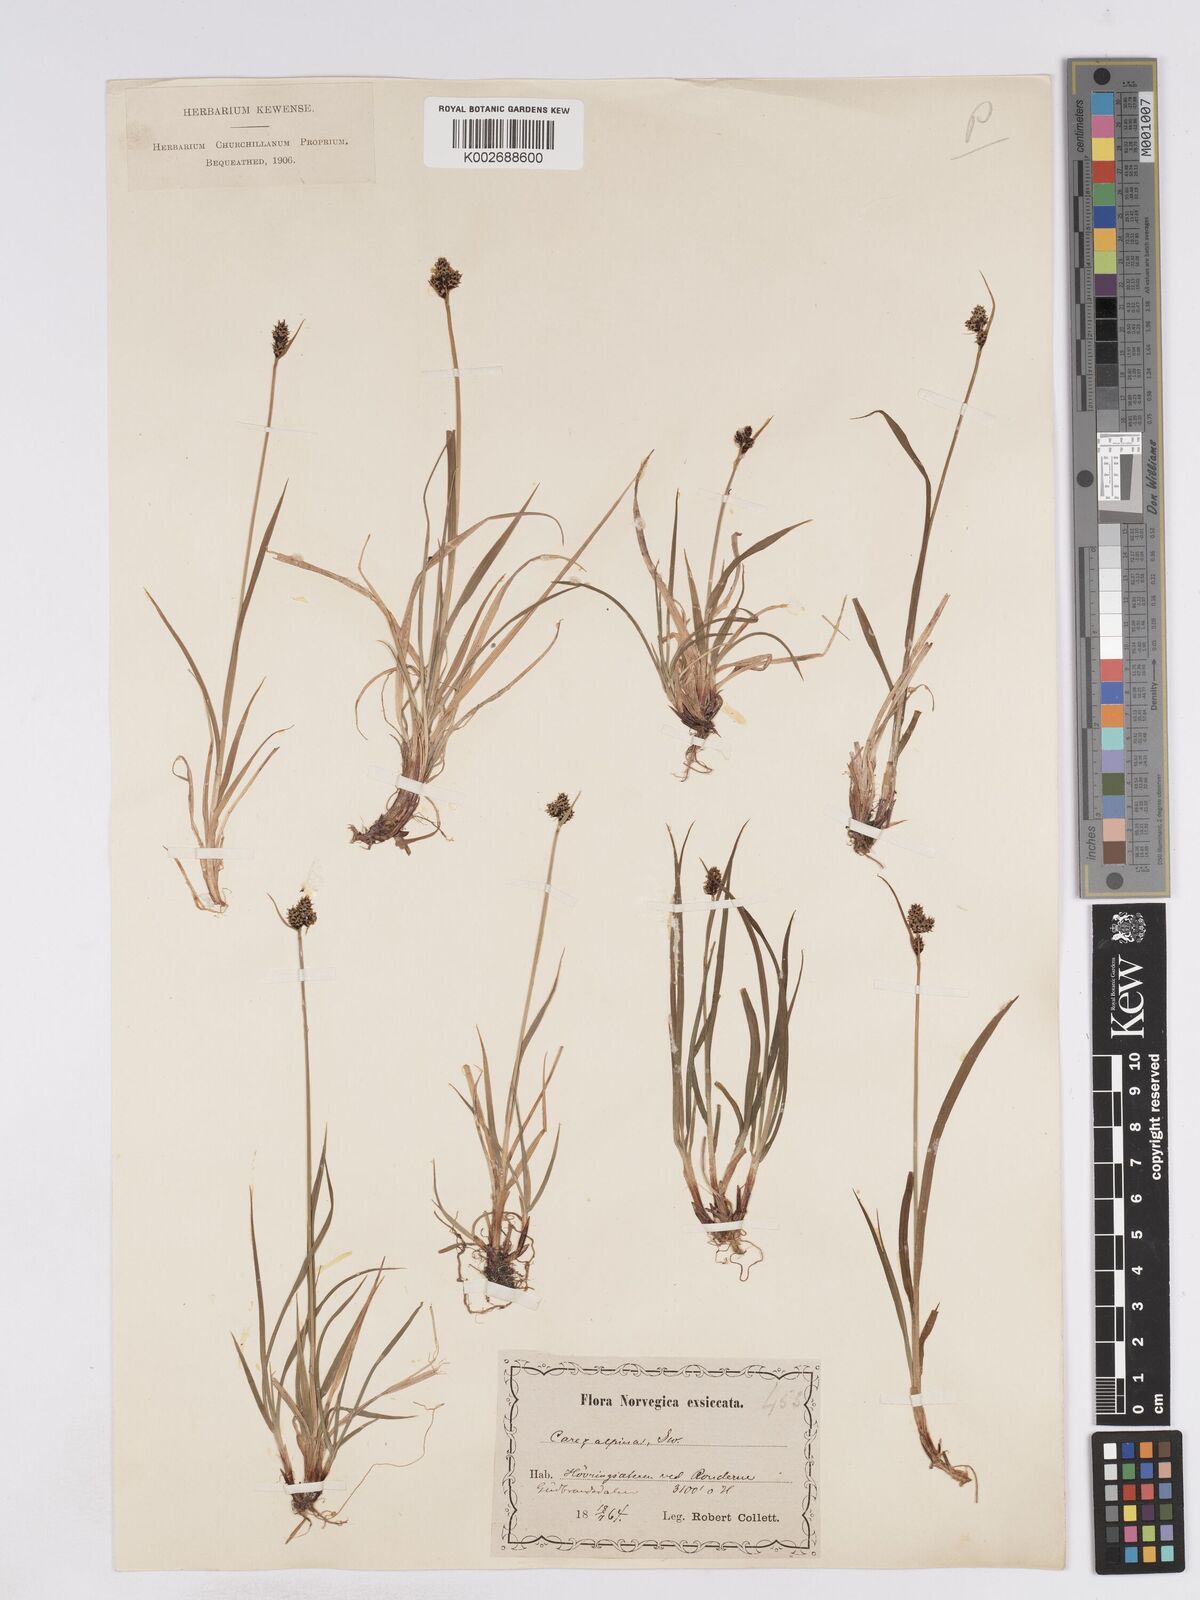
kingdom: Plantae
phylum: Tracheophyta
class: Liliopsida
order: Poales
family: Cyperaceae
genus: Carex
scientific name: Carex norvegica
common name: Close-headed alpine-sedge
